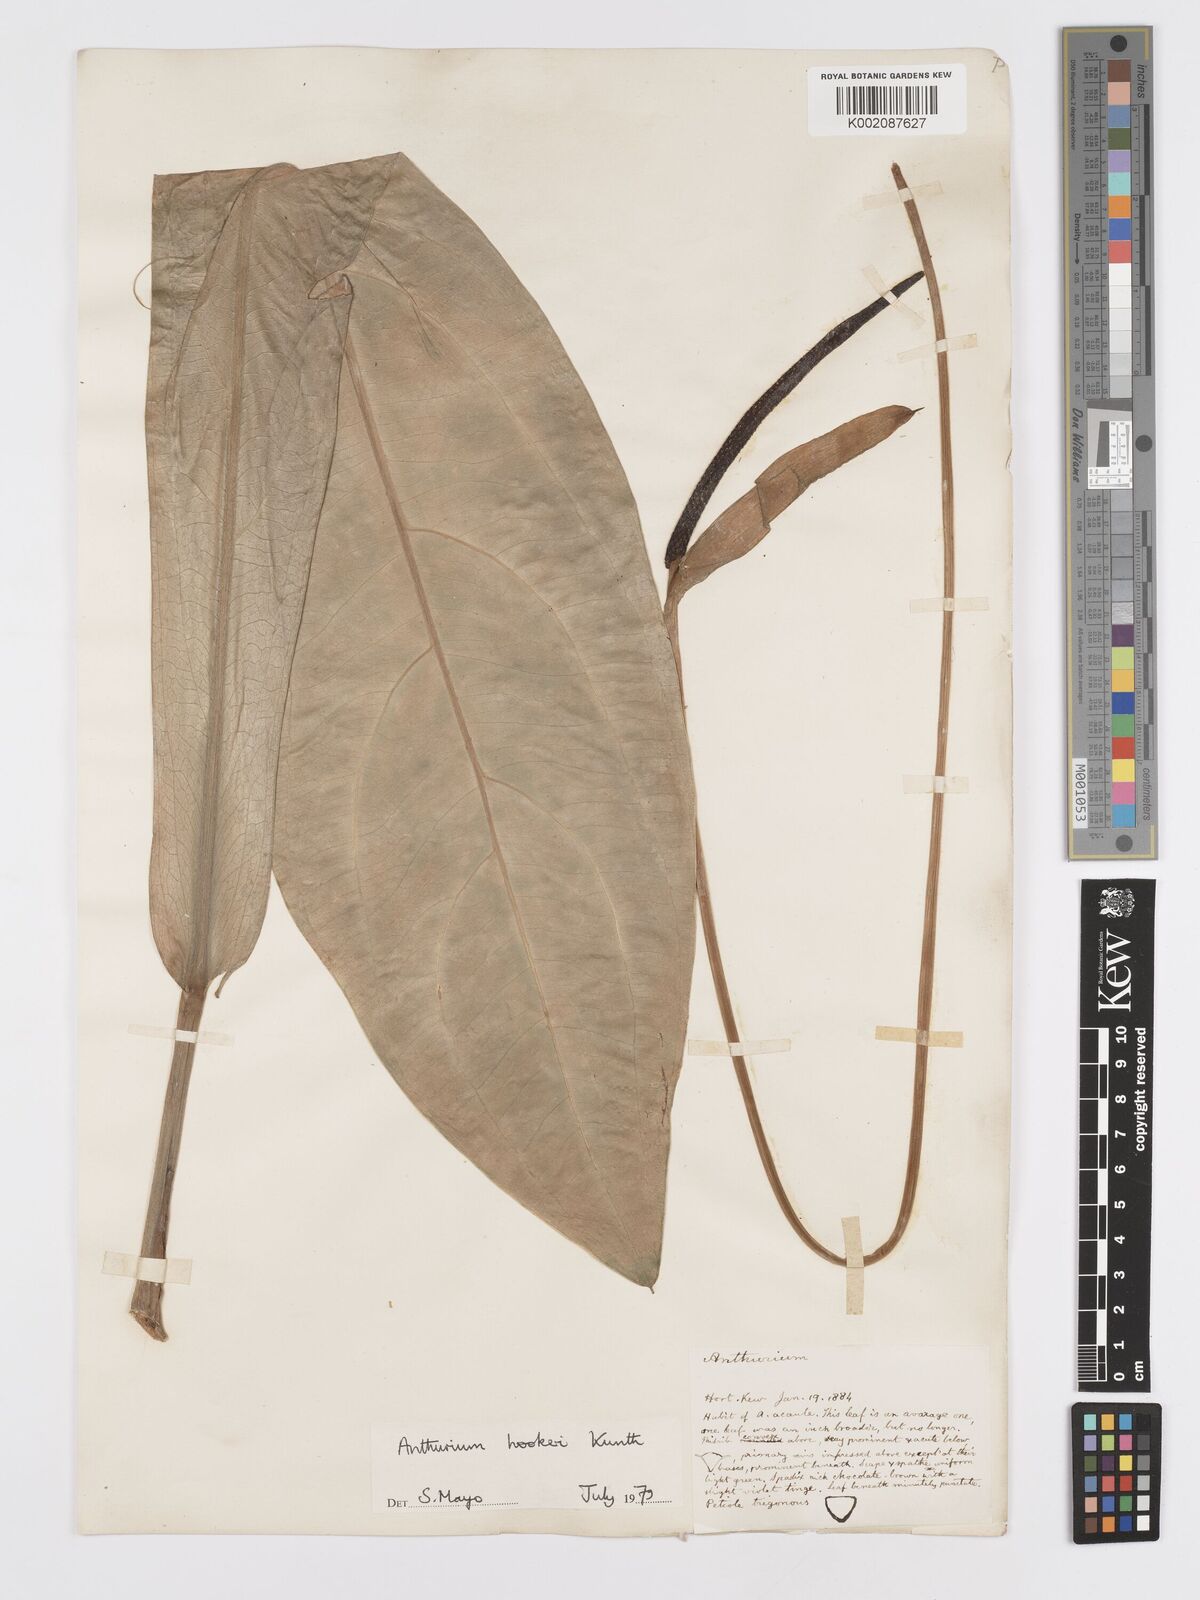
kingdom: Plantae
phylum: Tracheophyta
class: Liliopsida
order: Alismatales
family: Araceae
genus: Anthurium
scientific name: Anthurium hookeri
